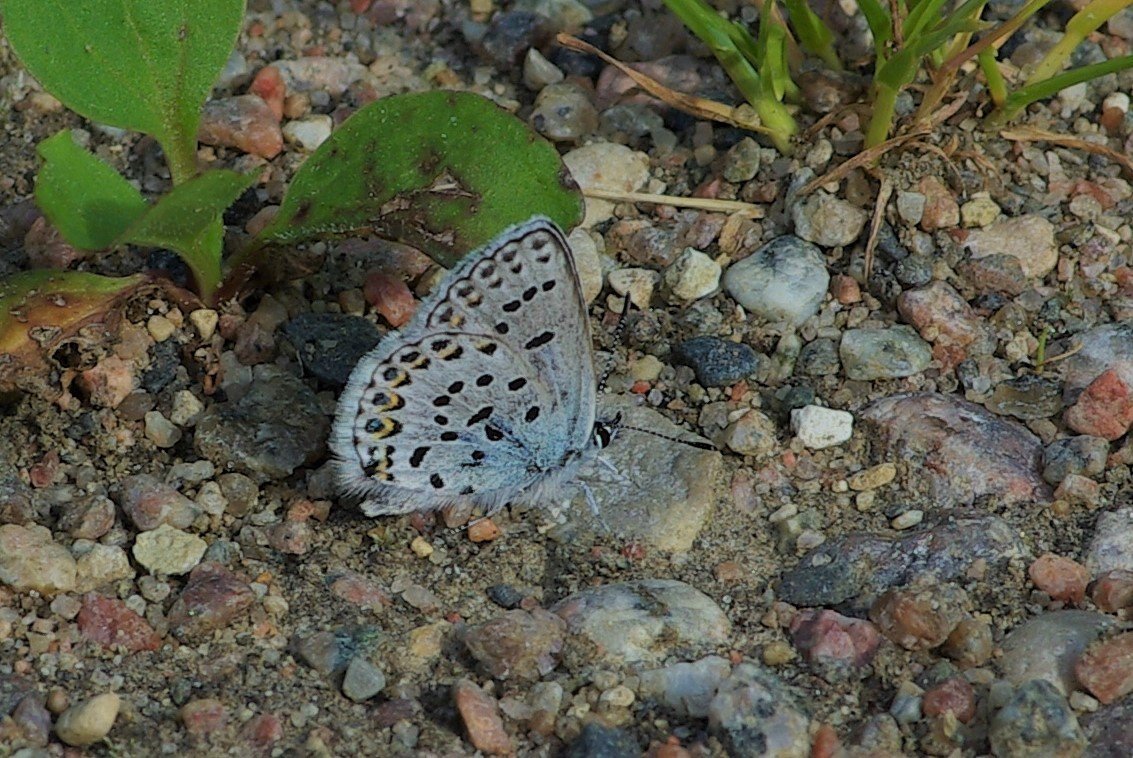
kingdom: Animalia
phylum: Arthropoda
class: Insecta
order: Lepidoptera
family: Lycaenidae
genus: Lycaeides
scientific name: Lycaeides idas
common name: Northern Blue
